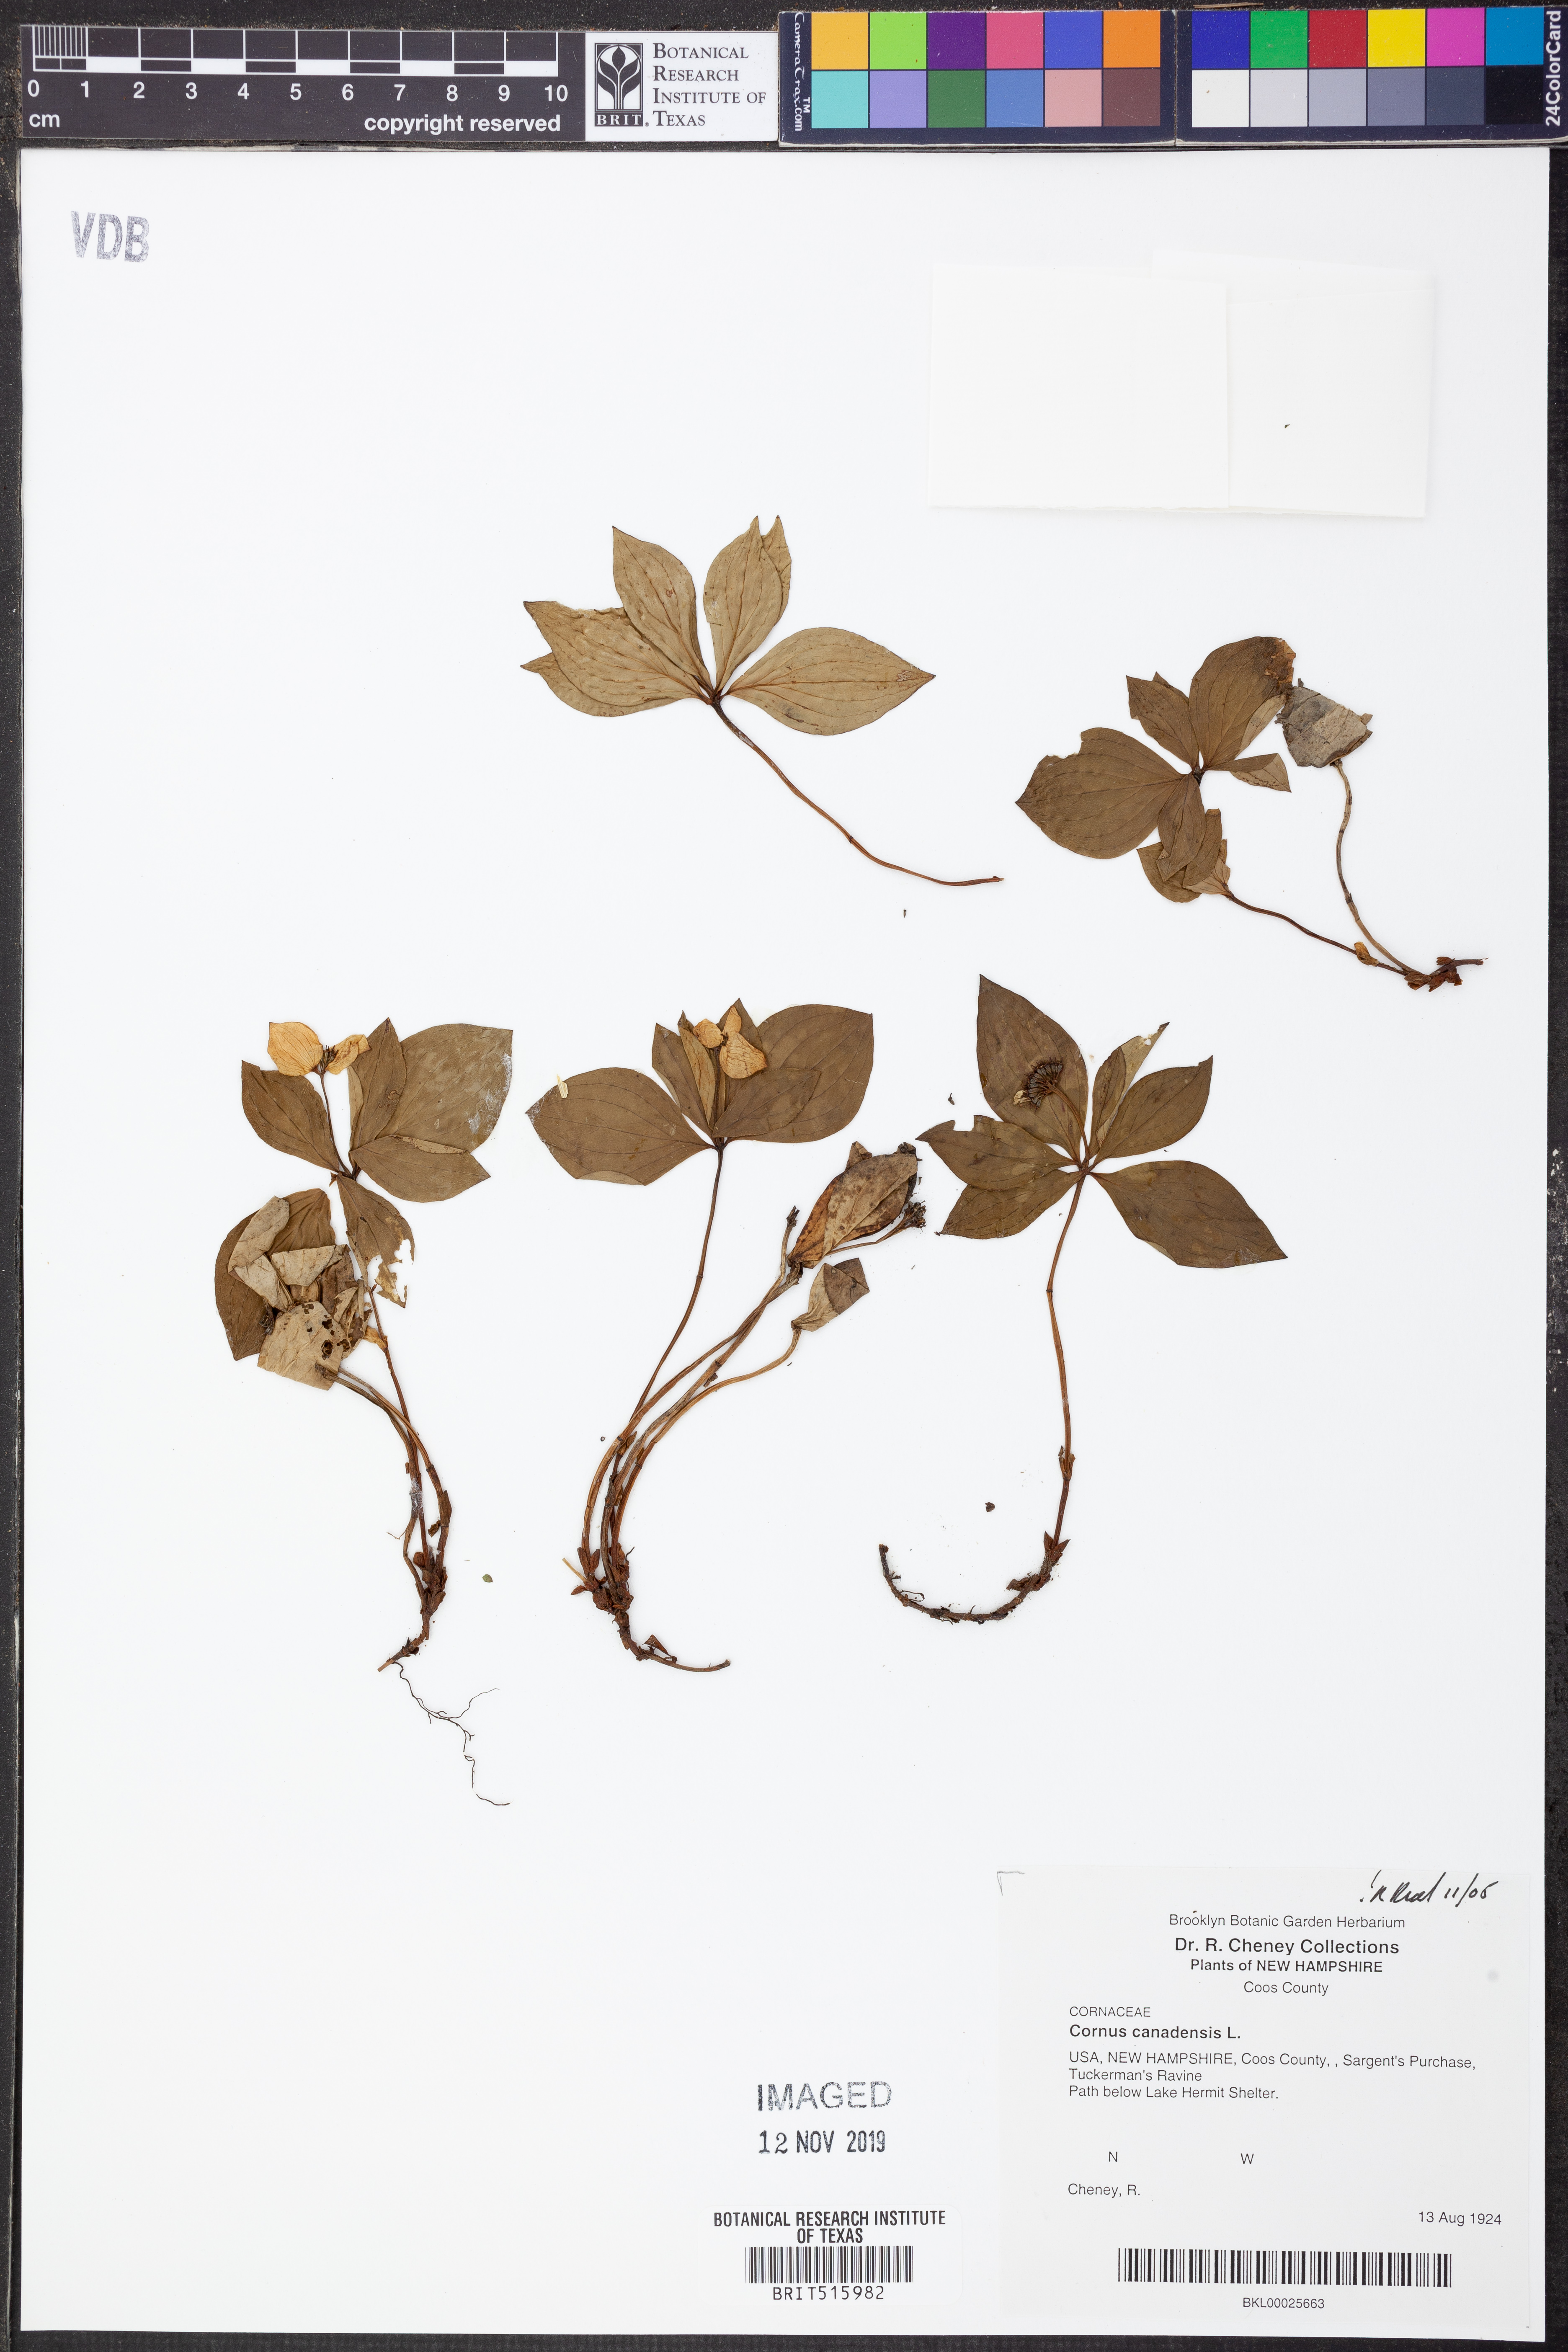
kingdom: Plantae
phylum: Tracheophyta
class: Magnoliopsida
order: Cornales
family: Cornaceae
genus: Cornus
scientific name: Cornus canadensis
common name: Creeping dogwood
